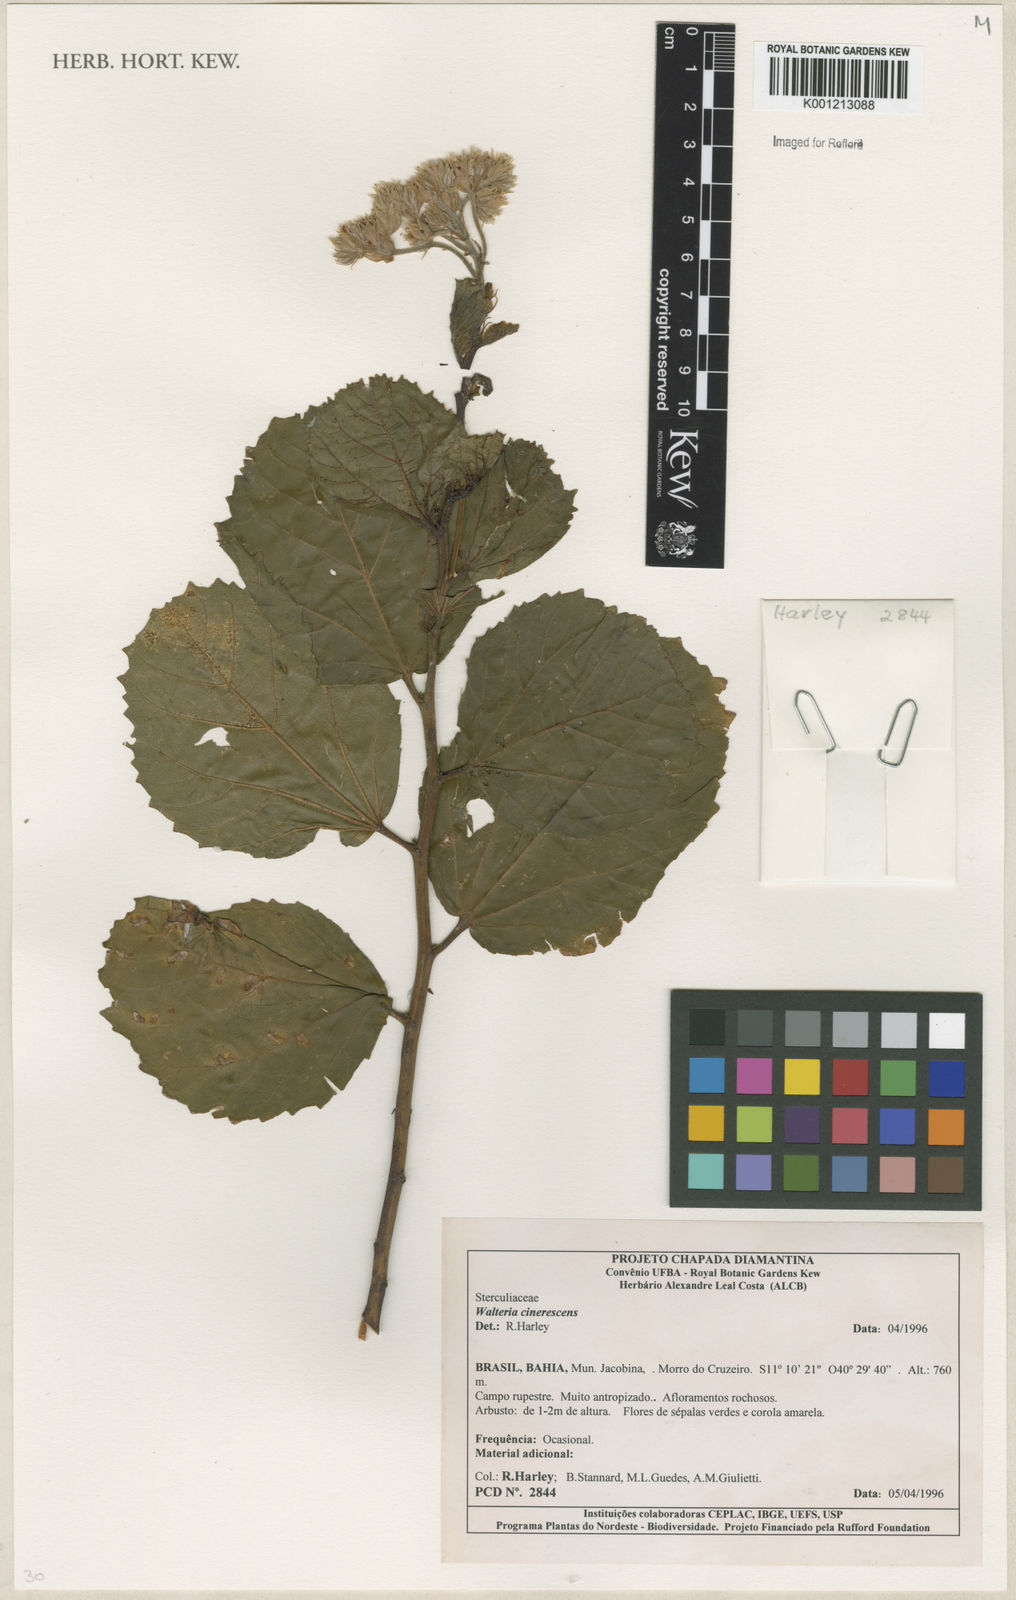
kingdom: Plantae
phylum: Tracheophyta
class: Magnoliopsida
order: Malvales
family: Malvaceae
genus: Waltheria
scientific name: Waltheria cinerescens
